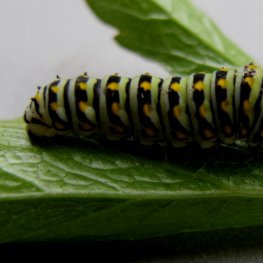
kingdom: Animalia
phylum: Arthropoda
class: Insecta
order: Lepidoptera
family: Papilionidae
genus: Papilio
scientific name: Papilio brevicauda
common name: Short-tailed Swallowtail
